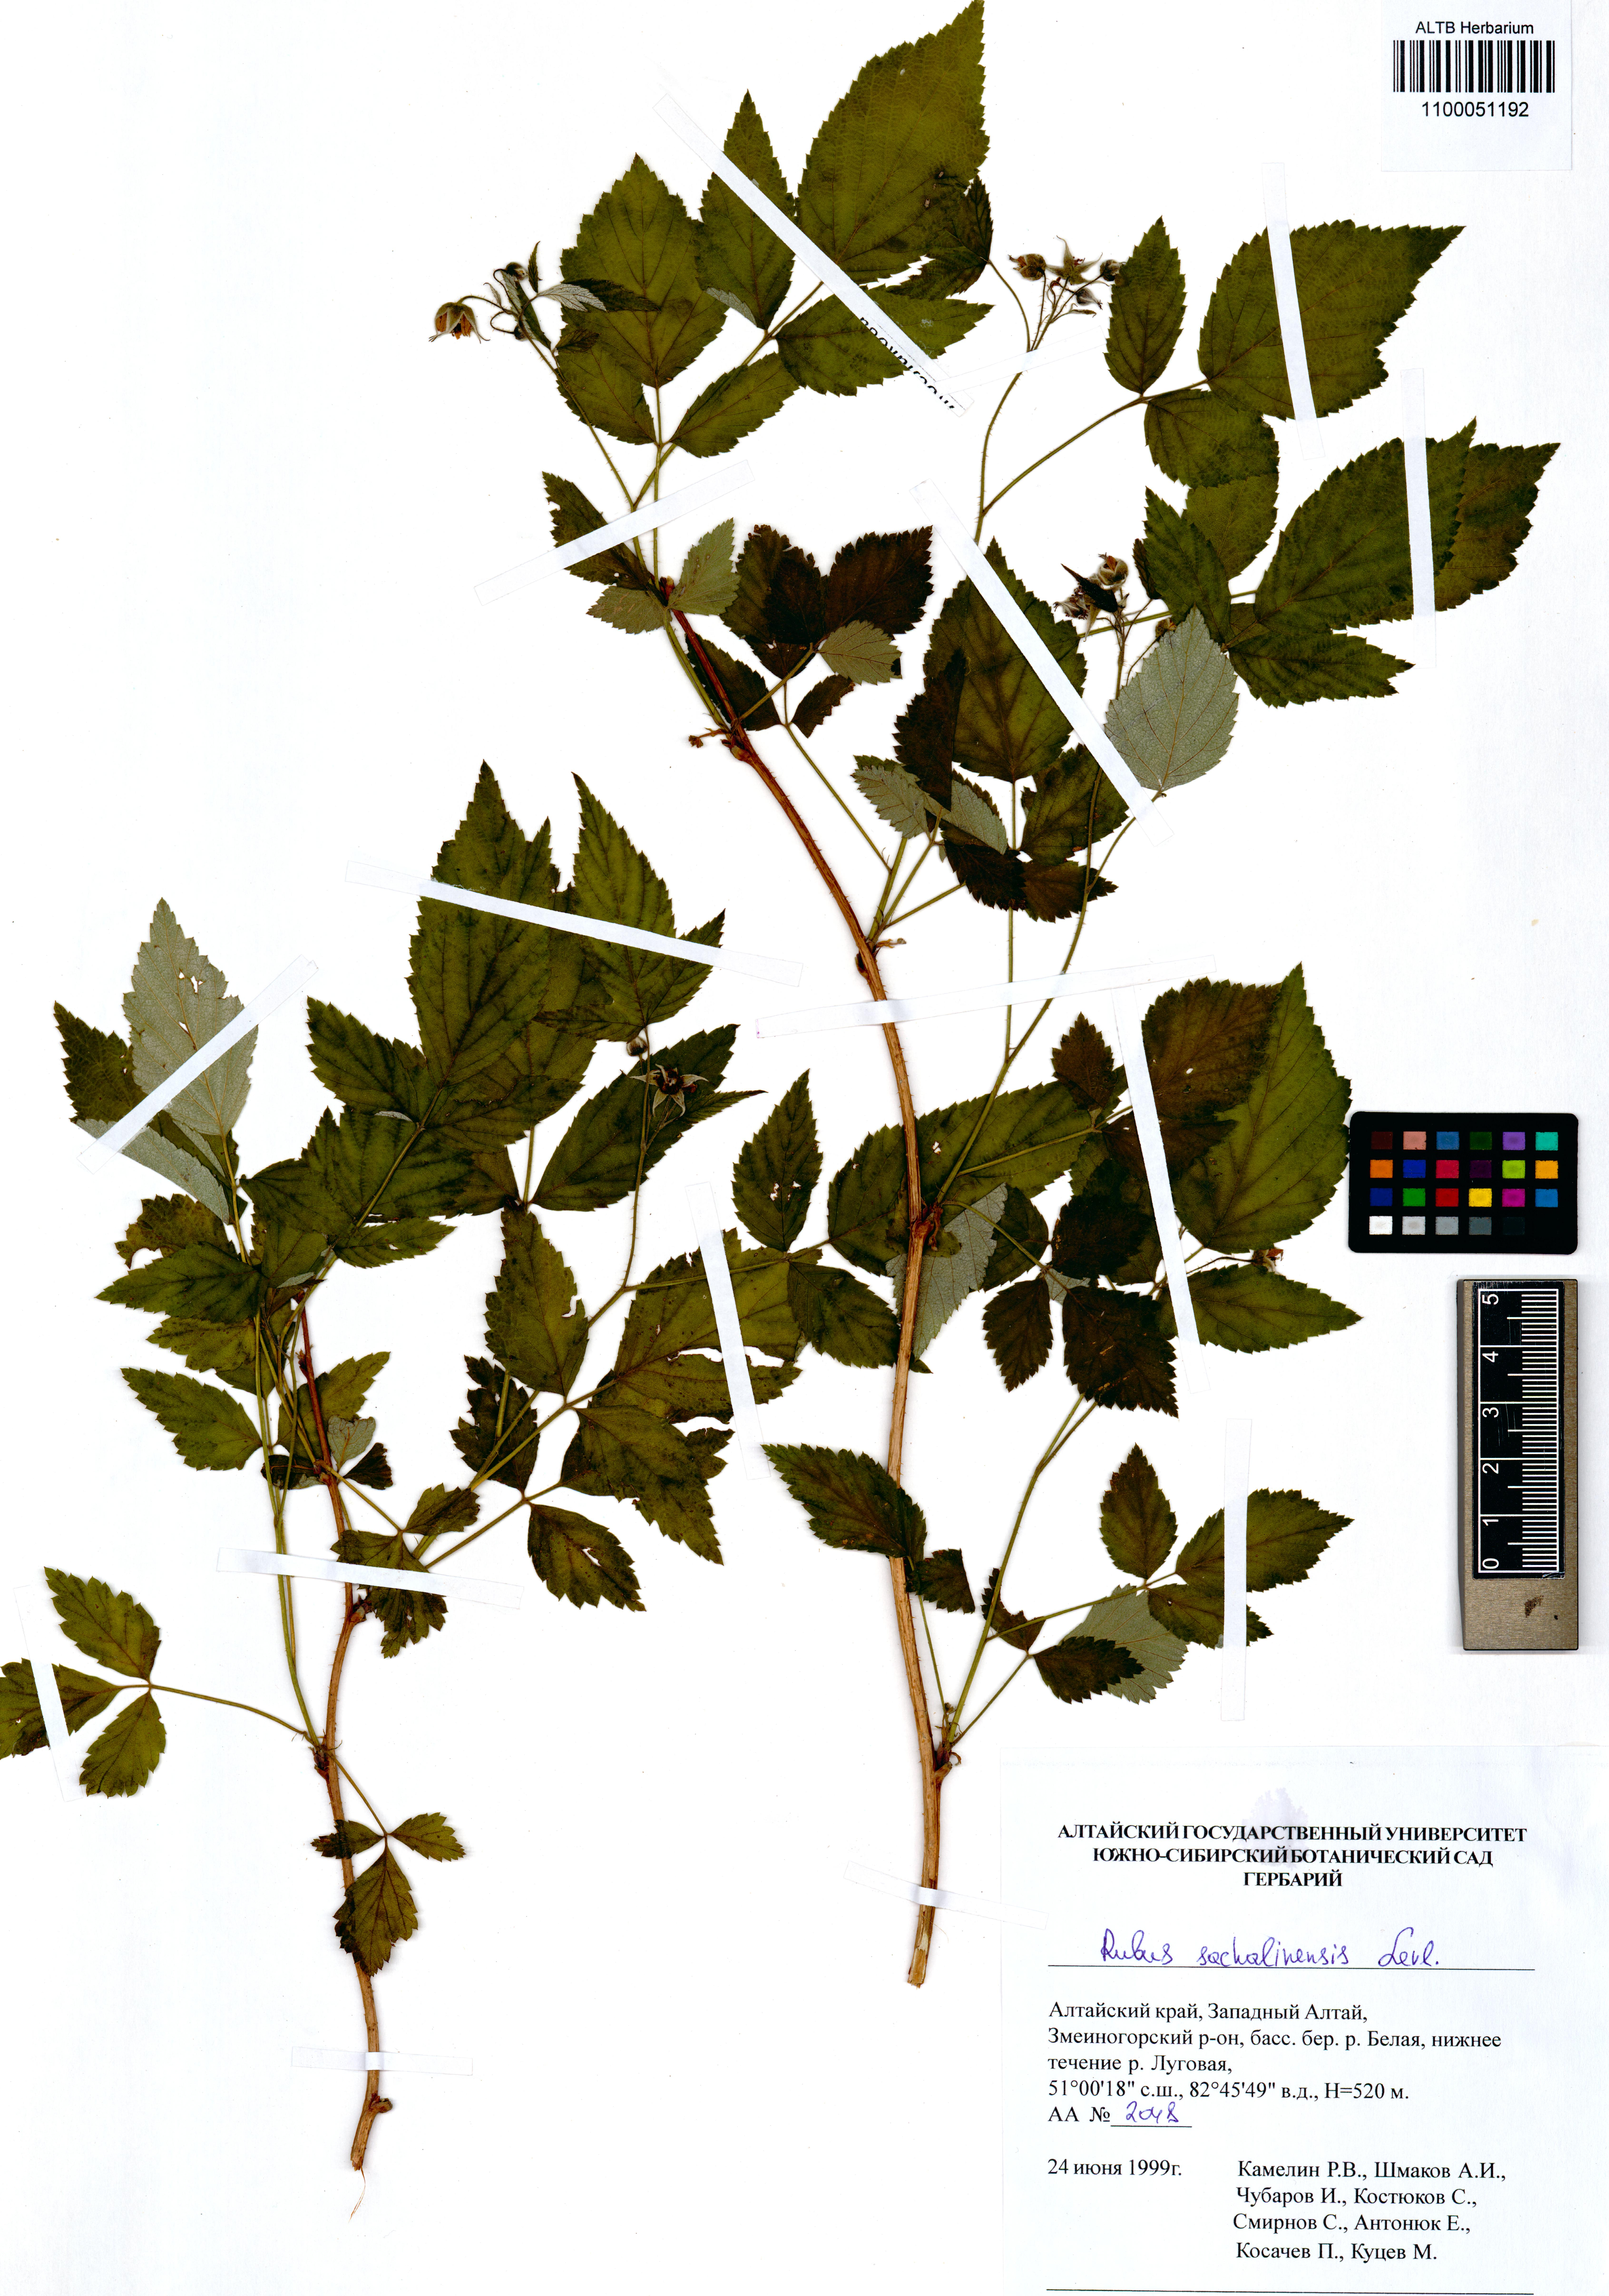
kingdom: Plantae
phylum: Tracheophyta
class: Magnoliopsida
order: Rosales
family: Rosaceae
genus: Rubus
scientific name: Rubus sachalinensis
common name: Red raspberry
